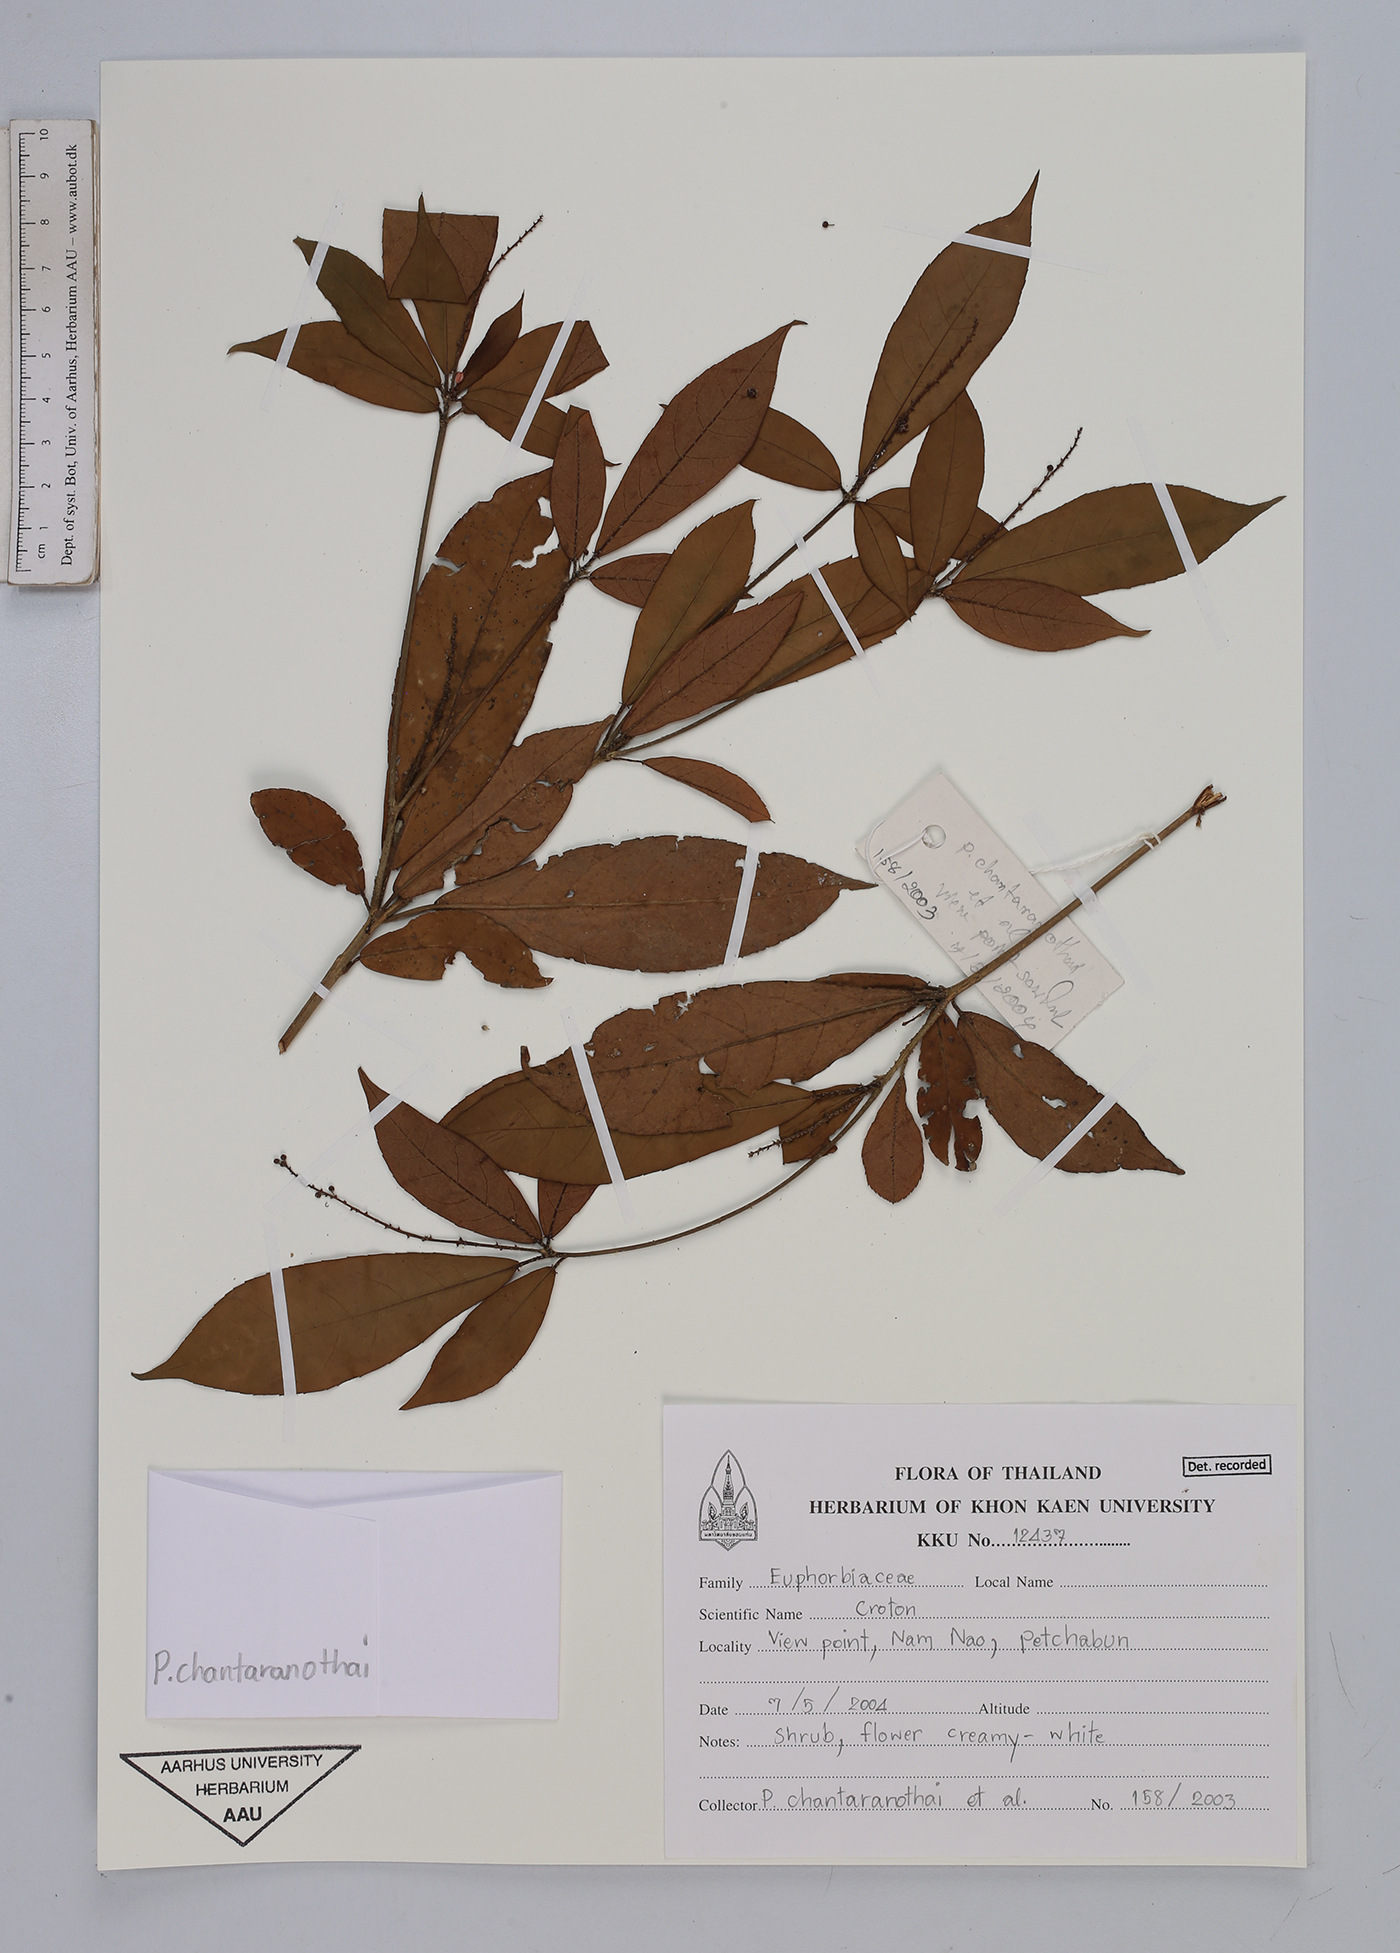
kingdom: Plantae
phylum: Tracheophyta
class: Magnoliopsida
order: Malpighiales
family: Euphorbiaceae
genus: Croton
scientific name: Croton
